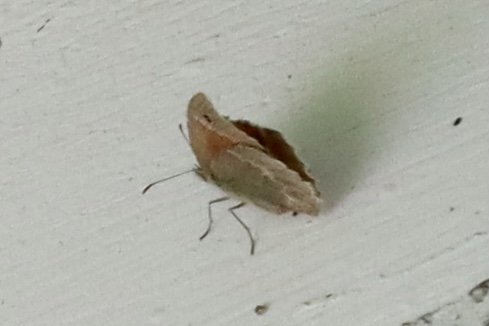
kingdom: Animalia
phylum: Arthropoda
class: Insecta
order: Lepidoptera
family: Nymphalidae
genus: Coenonympha
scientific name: Coenonympha california
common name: California Ringlet
